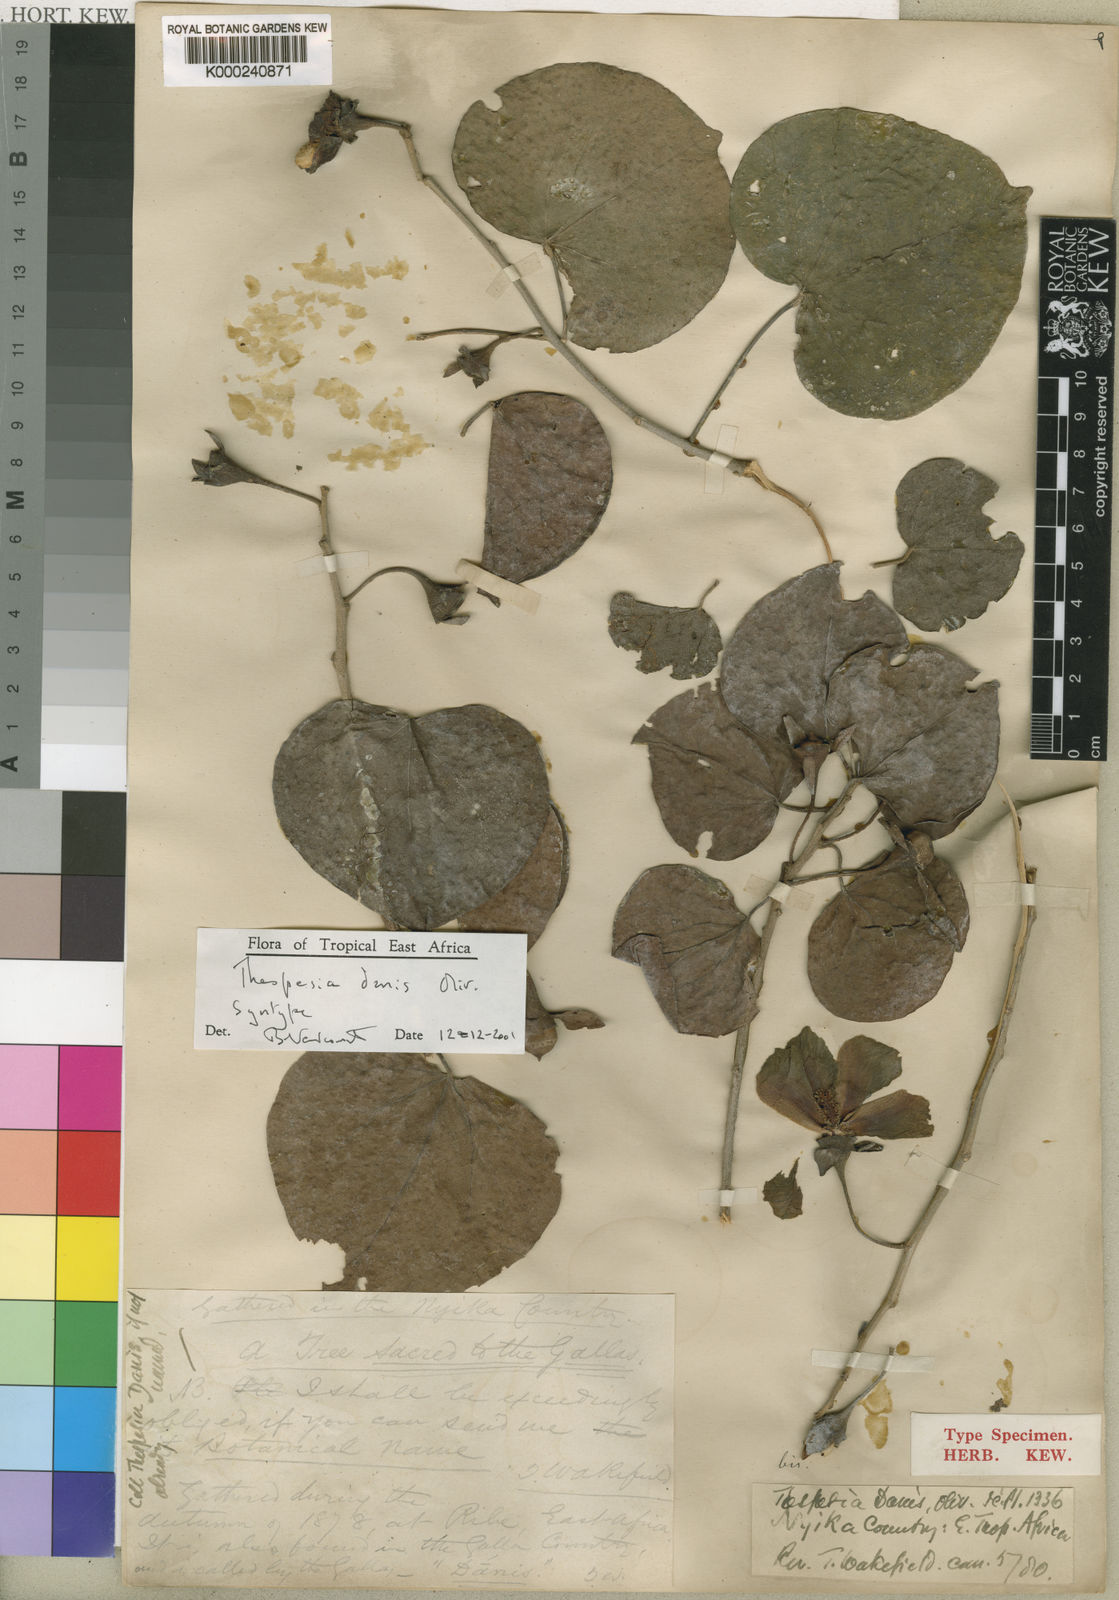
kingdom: Plantae
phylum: Tracheophyta
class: Magnoliopsida
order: Malvales
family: Malvaceae
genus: Thespesia
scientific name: Thespesia danis
